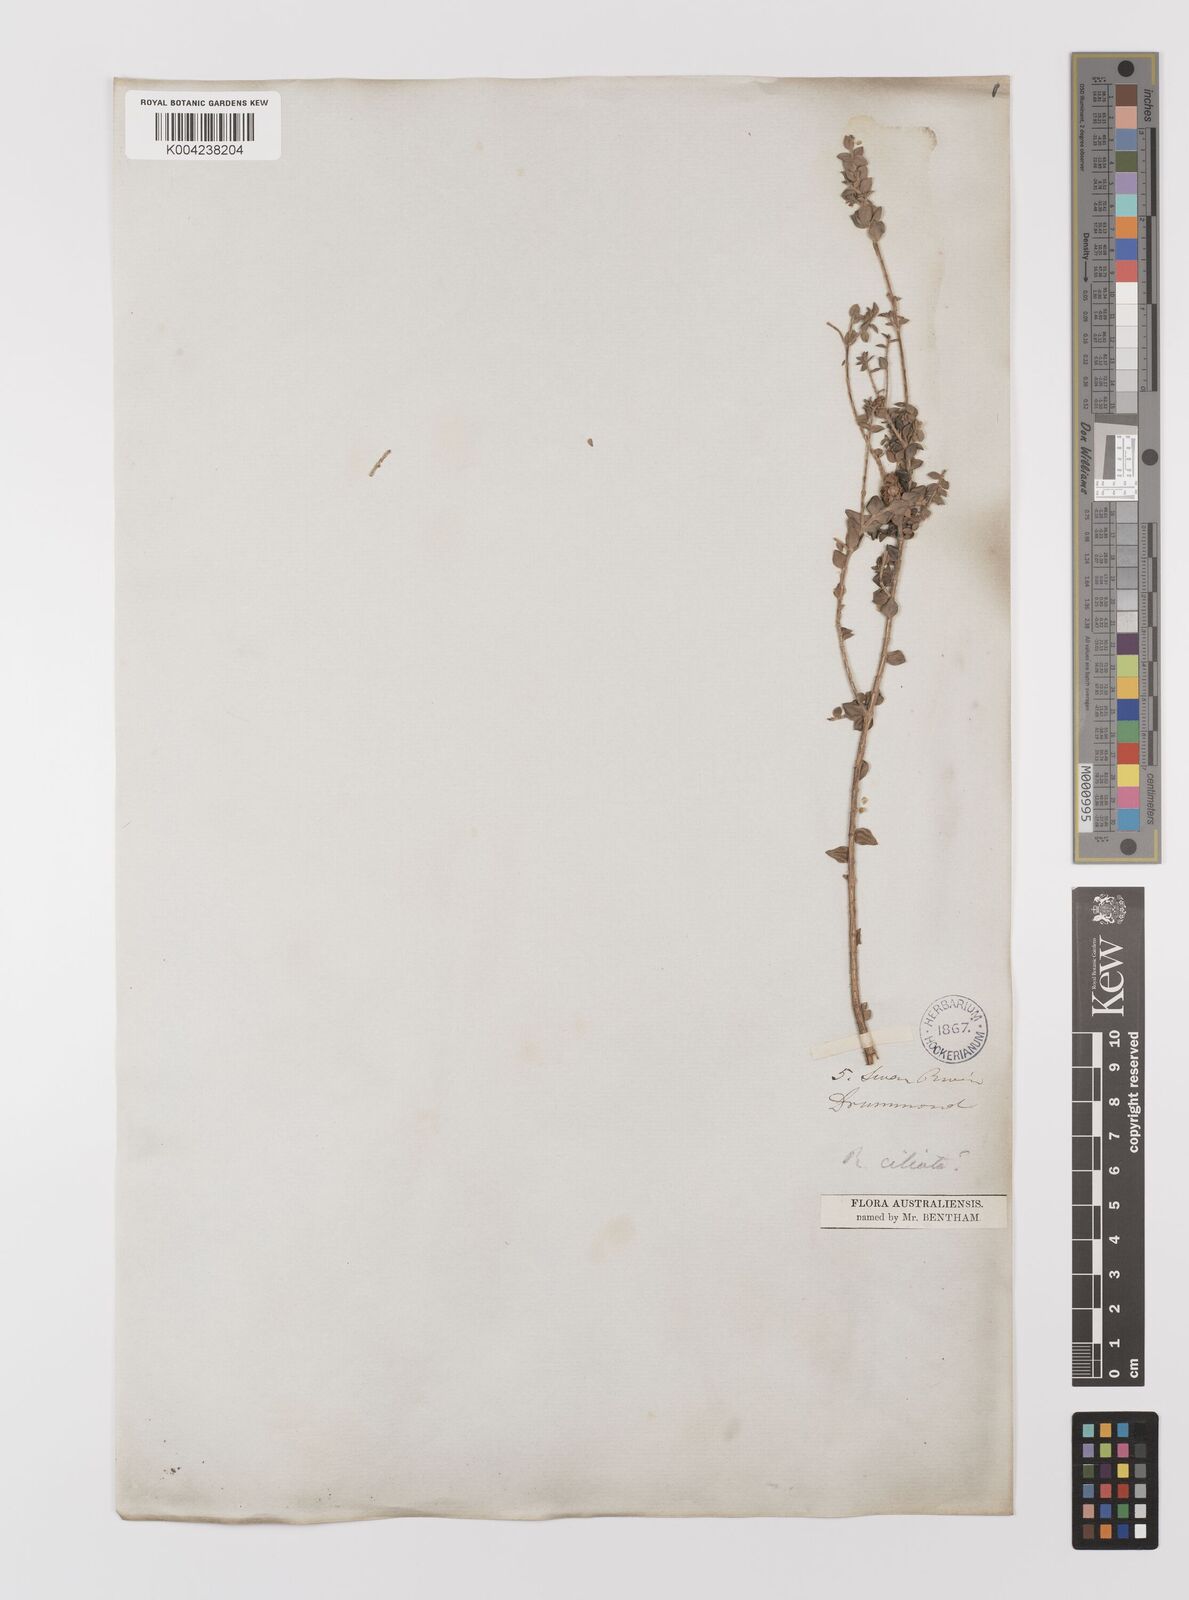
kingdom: Plantae
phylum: Tracheophyta
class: Magnoliopsida
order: Myrtales
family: Myrtaceae
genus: Melaleuca
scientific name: Melaleuca crossota
